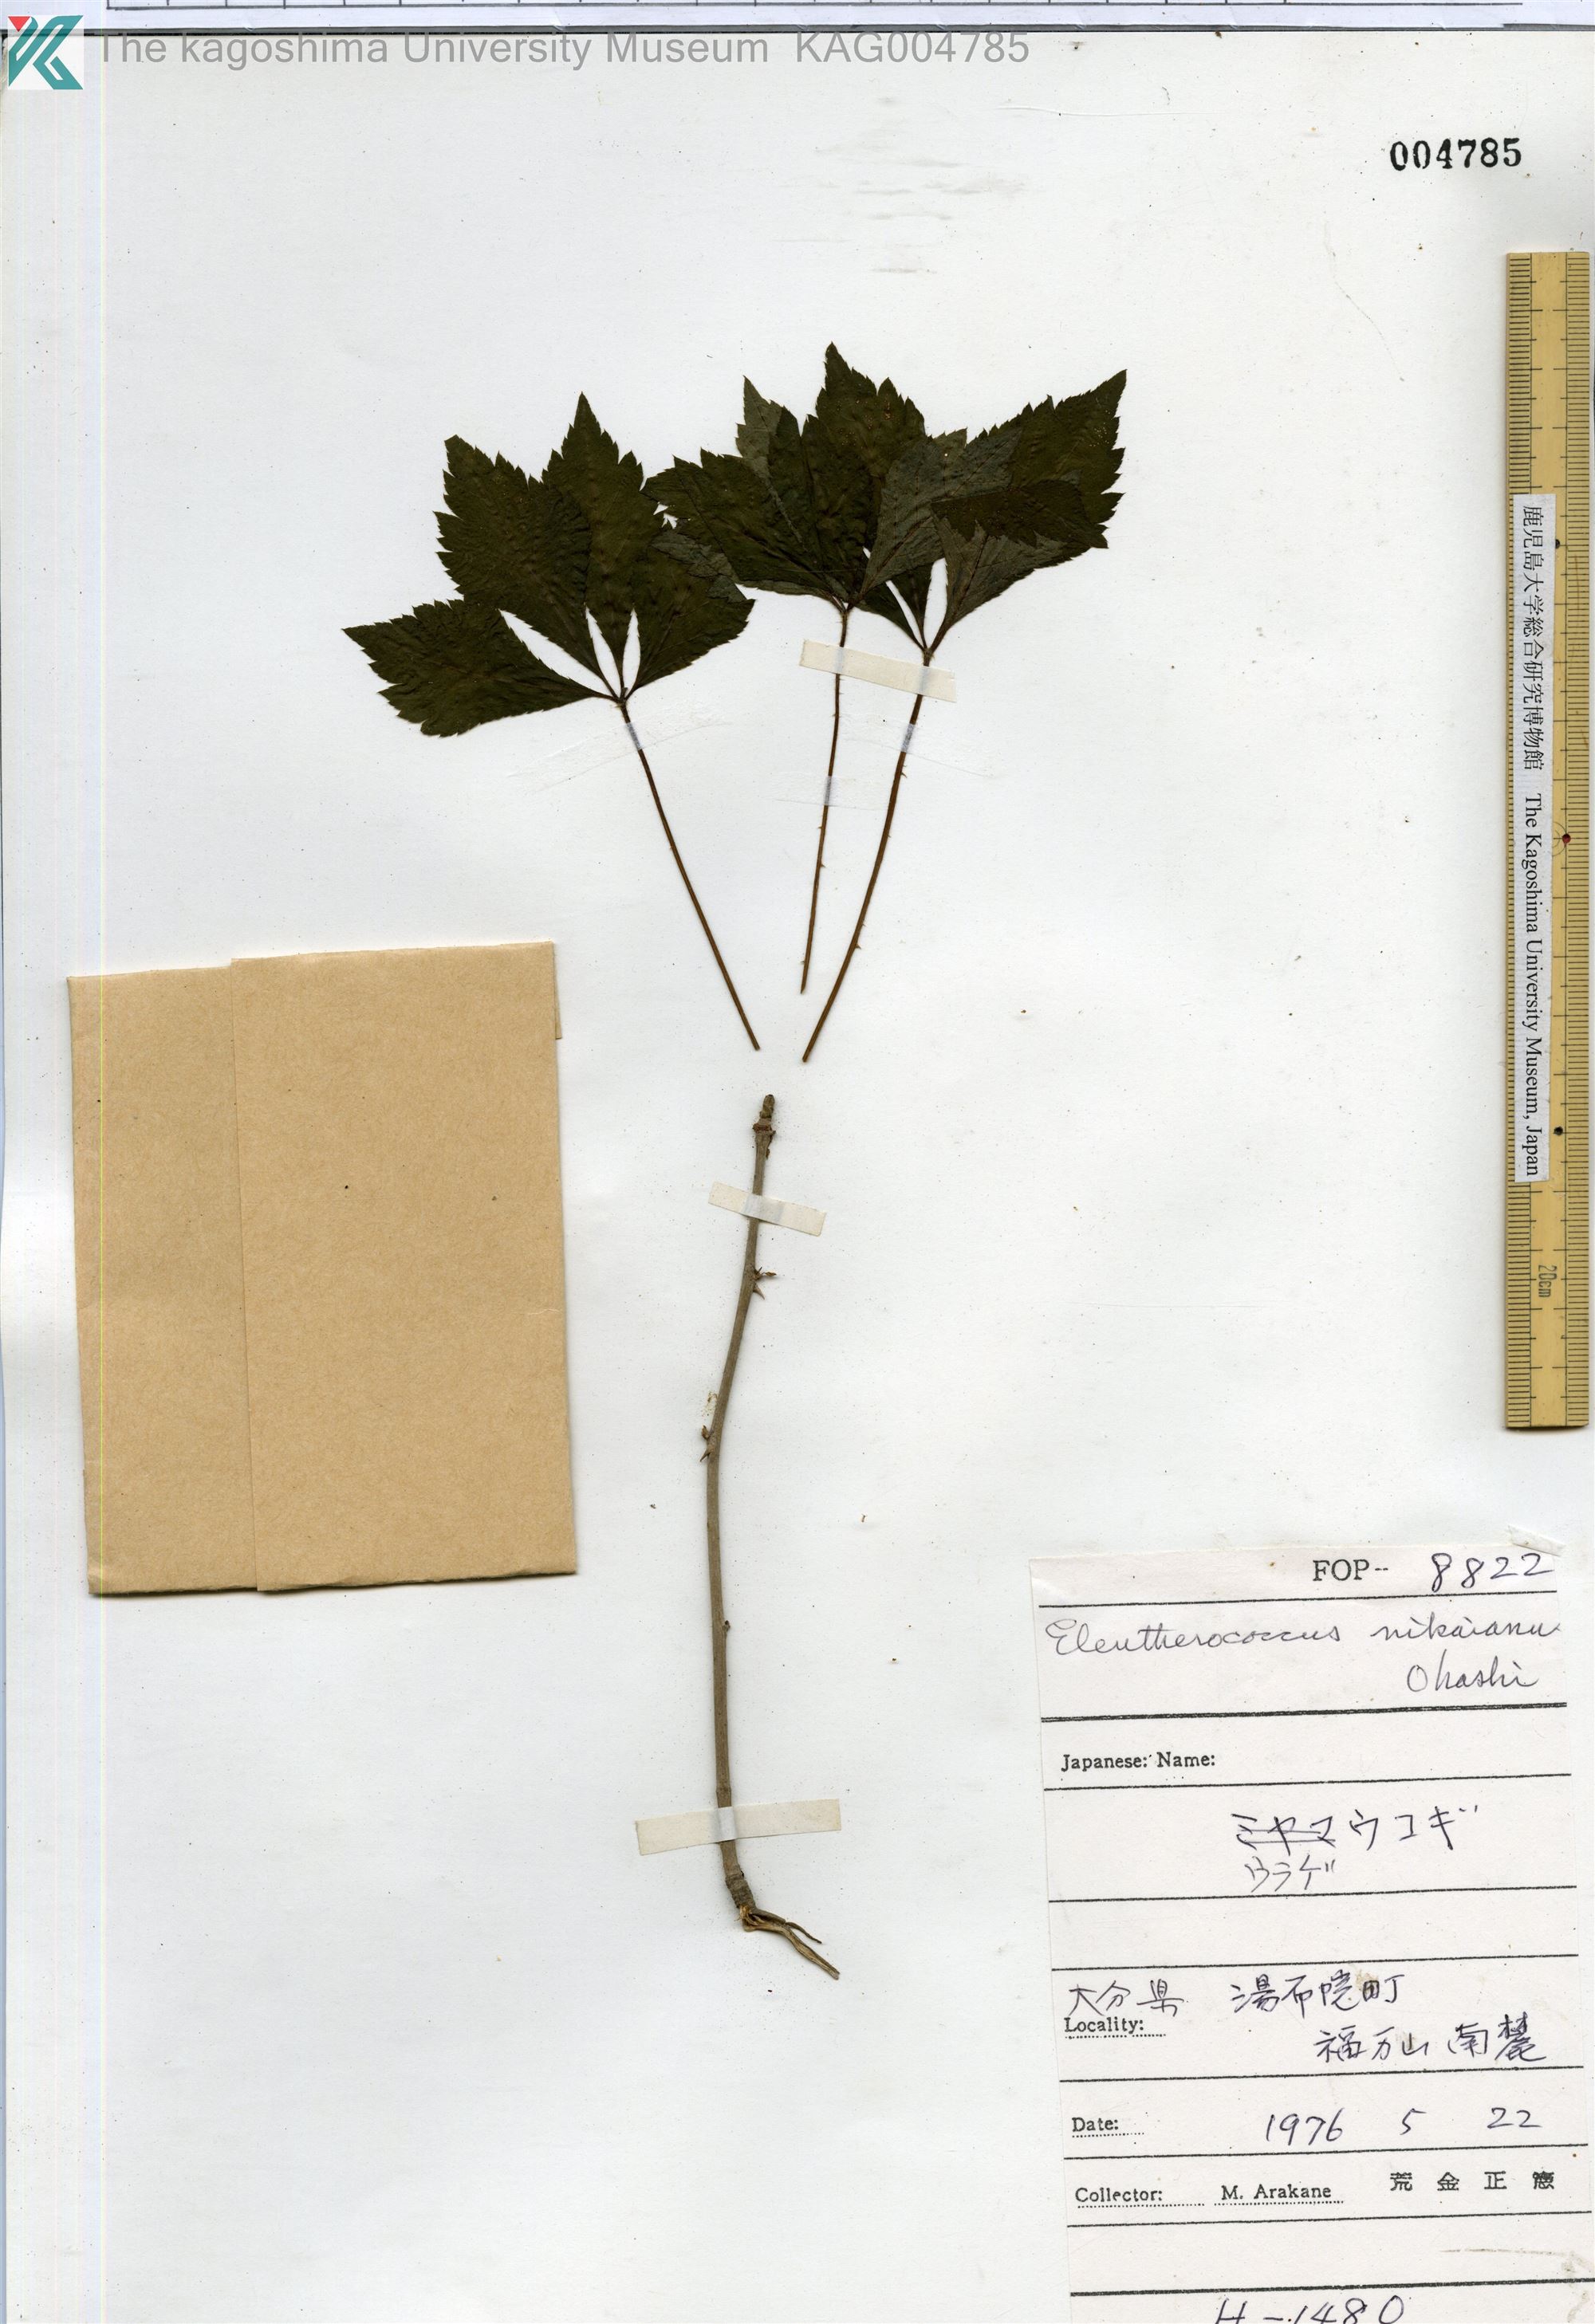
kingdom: Plantae
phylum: Tracheophyta
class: Magnoliopsida
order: Apiales
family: Araliaceae
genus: Eleutherococcus
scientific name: Eleutherococcus nikaianus
